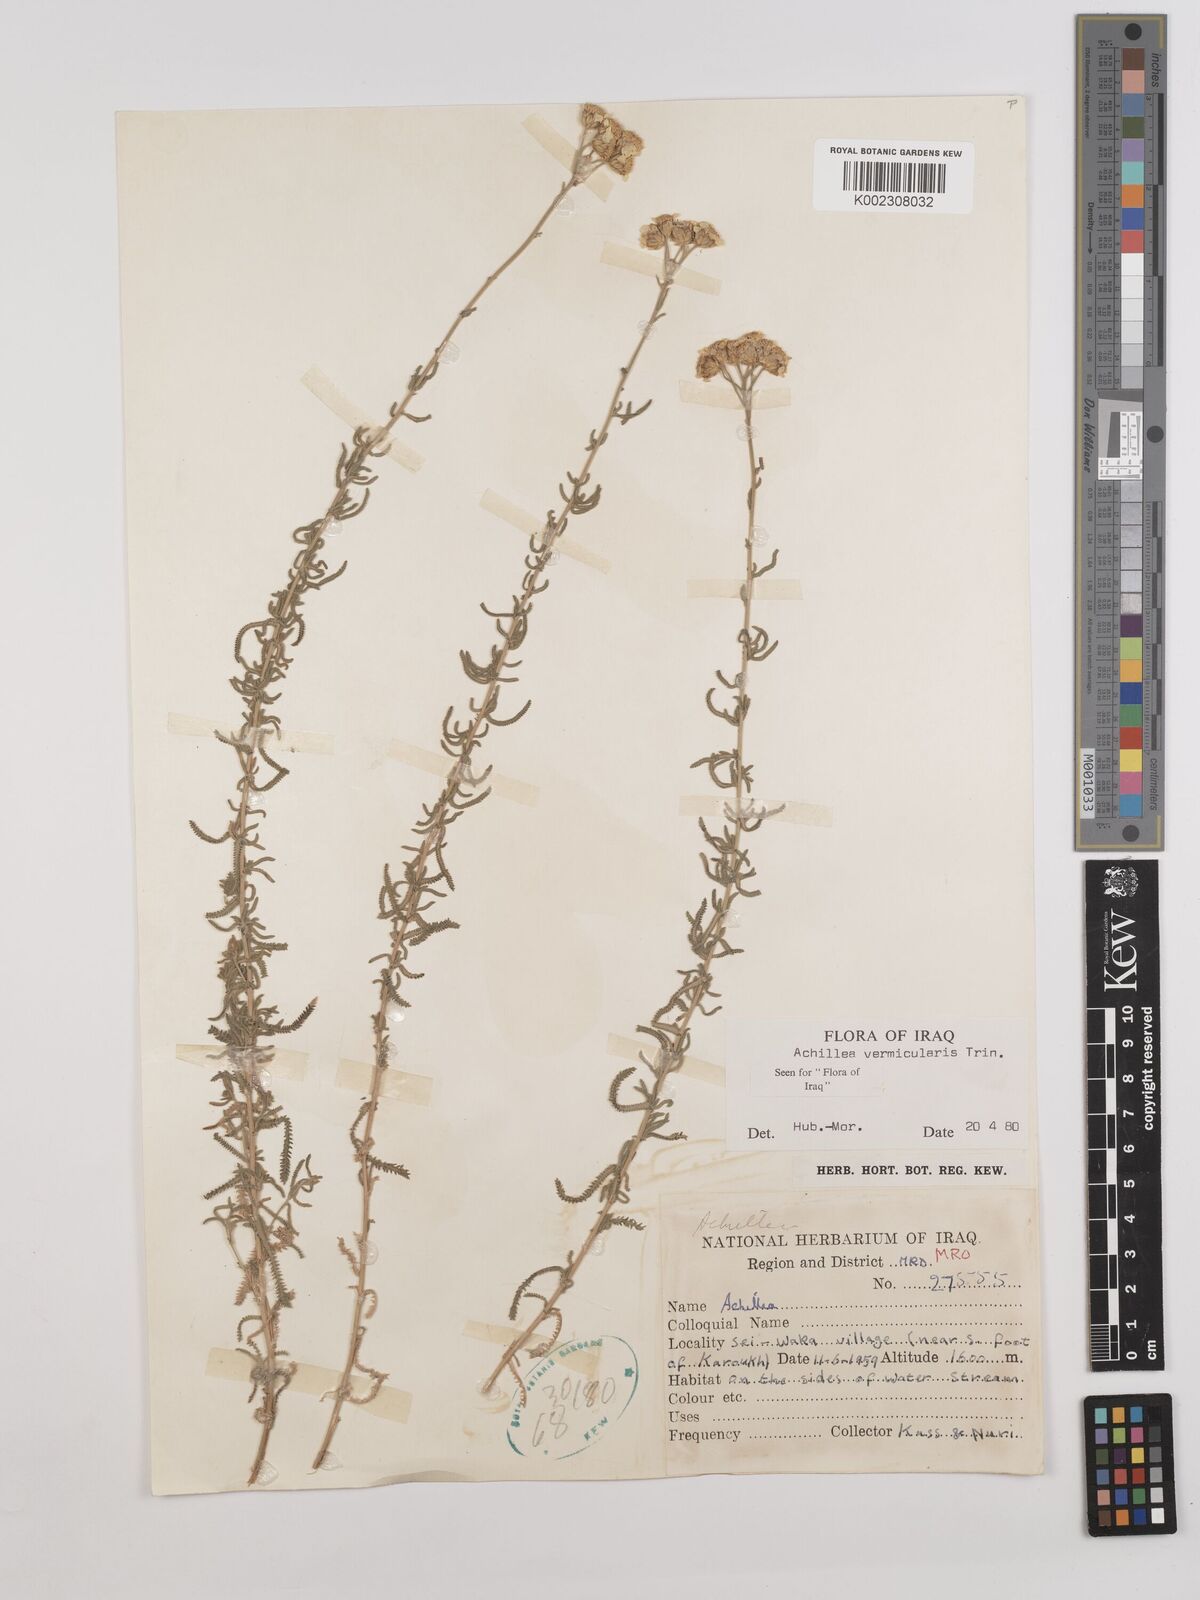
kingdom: Plantae
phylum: Tracheophyta
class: Magnoliopsida
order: Asterales
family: Asteraceae
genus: Achillea
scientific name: Achillea vermicularis
